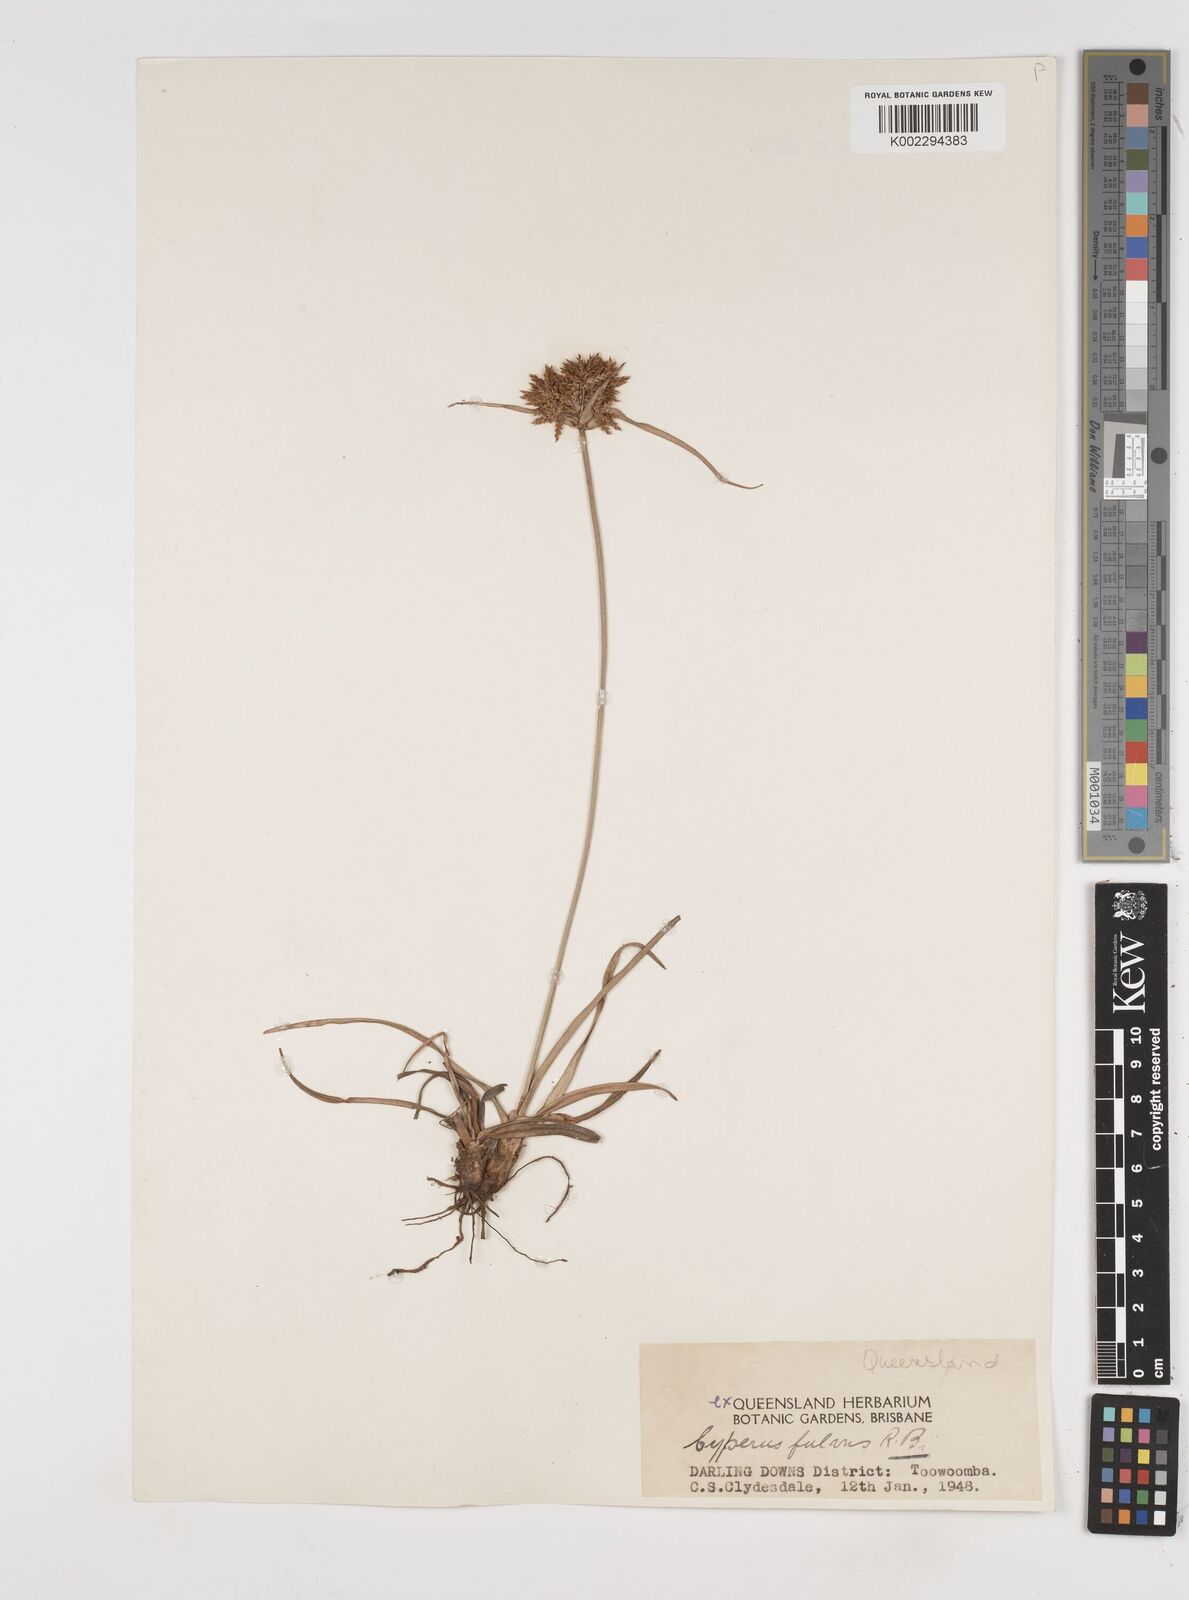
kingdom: Plantae
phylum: Tracheophyta
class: Liliopsida
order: Poales
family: Cyperaceae
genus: Cyperus
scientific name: Cyperus fulvus
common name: Sticky sedge
